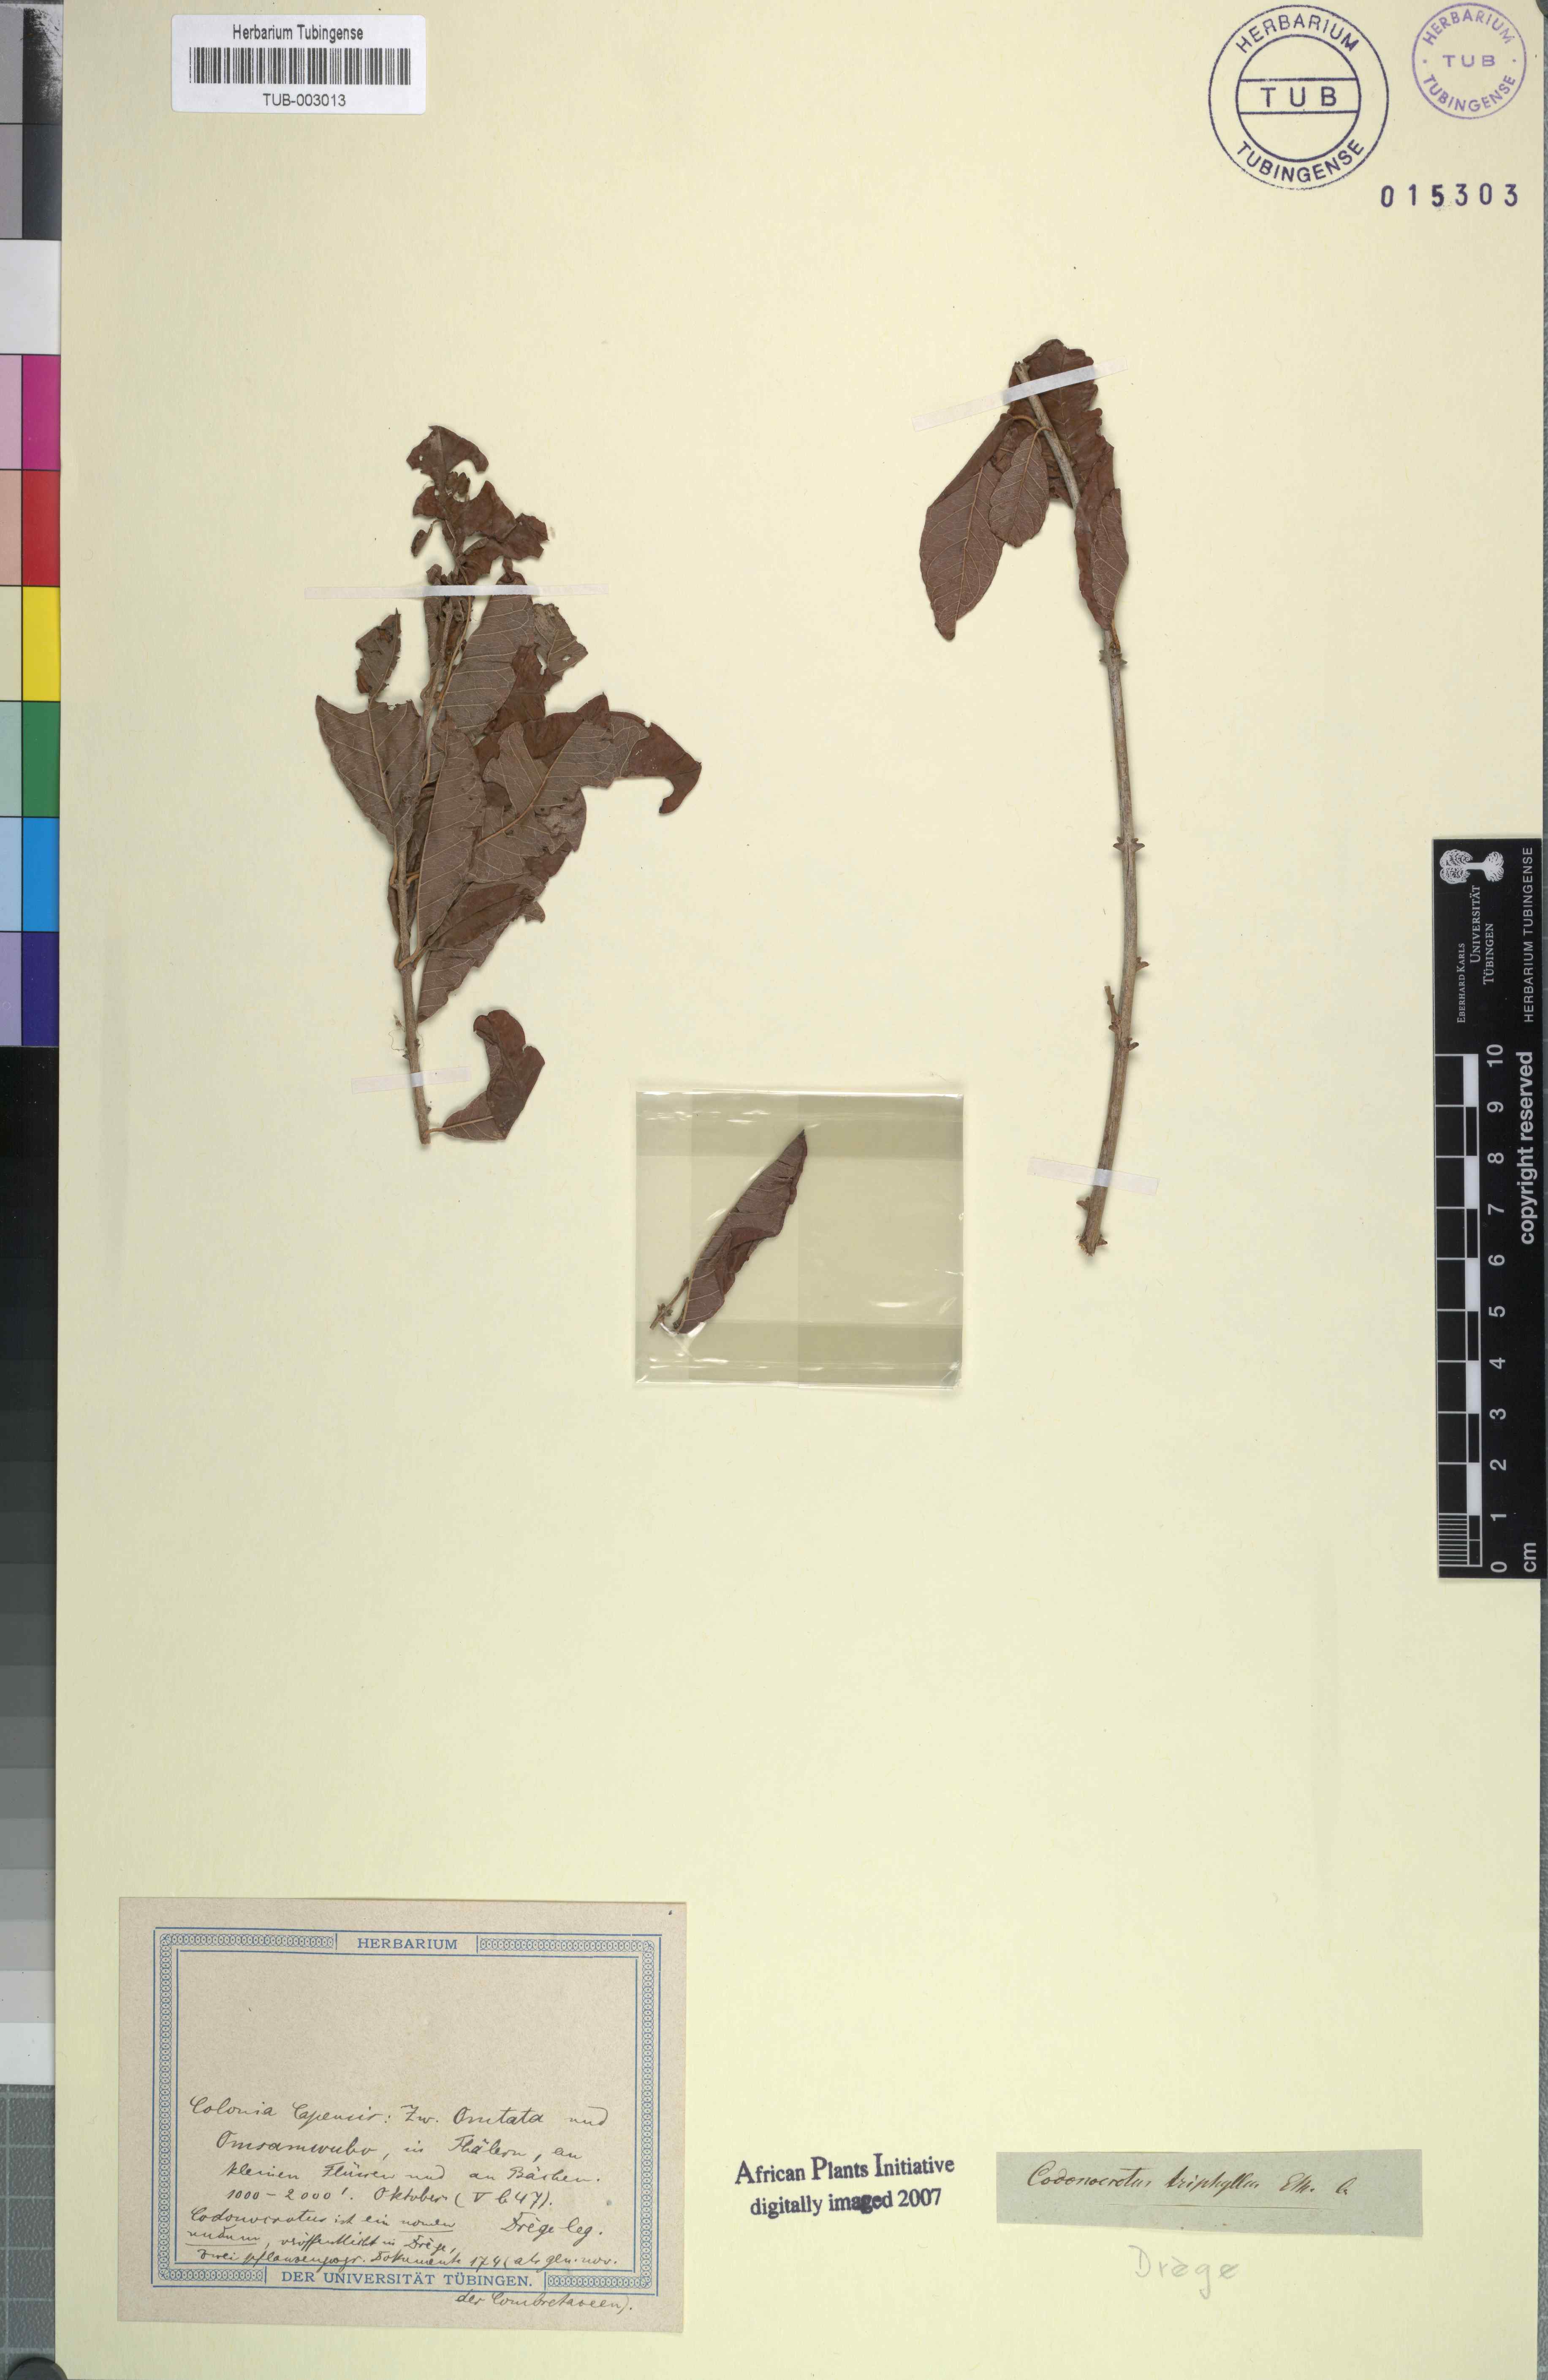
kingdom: Plantae
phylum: Tracheophyta
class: Magnoliopsida
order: Myrtales
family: Combretaceae
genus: Combretum
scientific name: Combretum bracteosum
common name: Hiccup-nut
